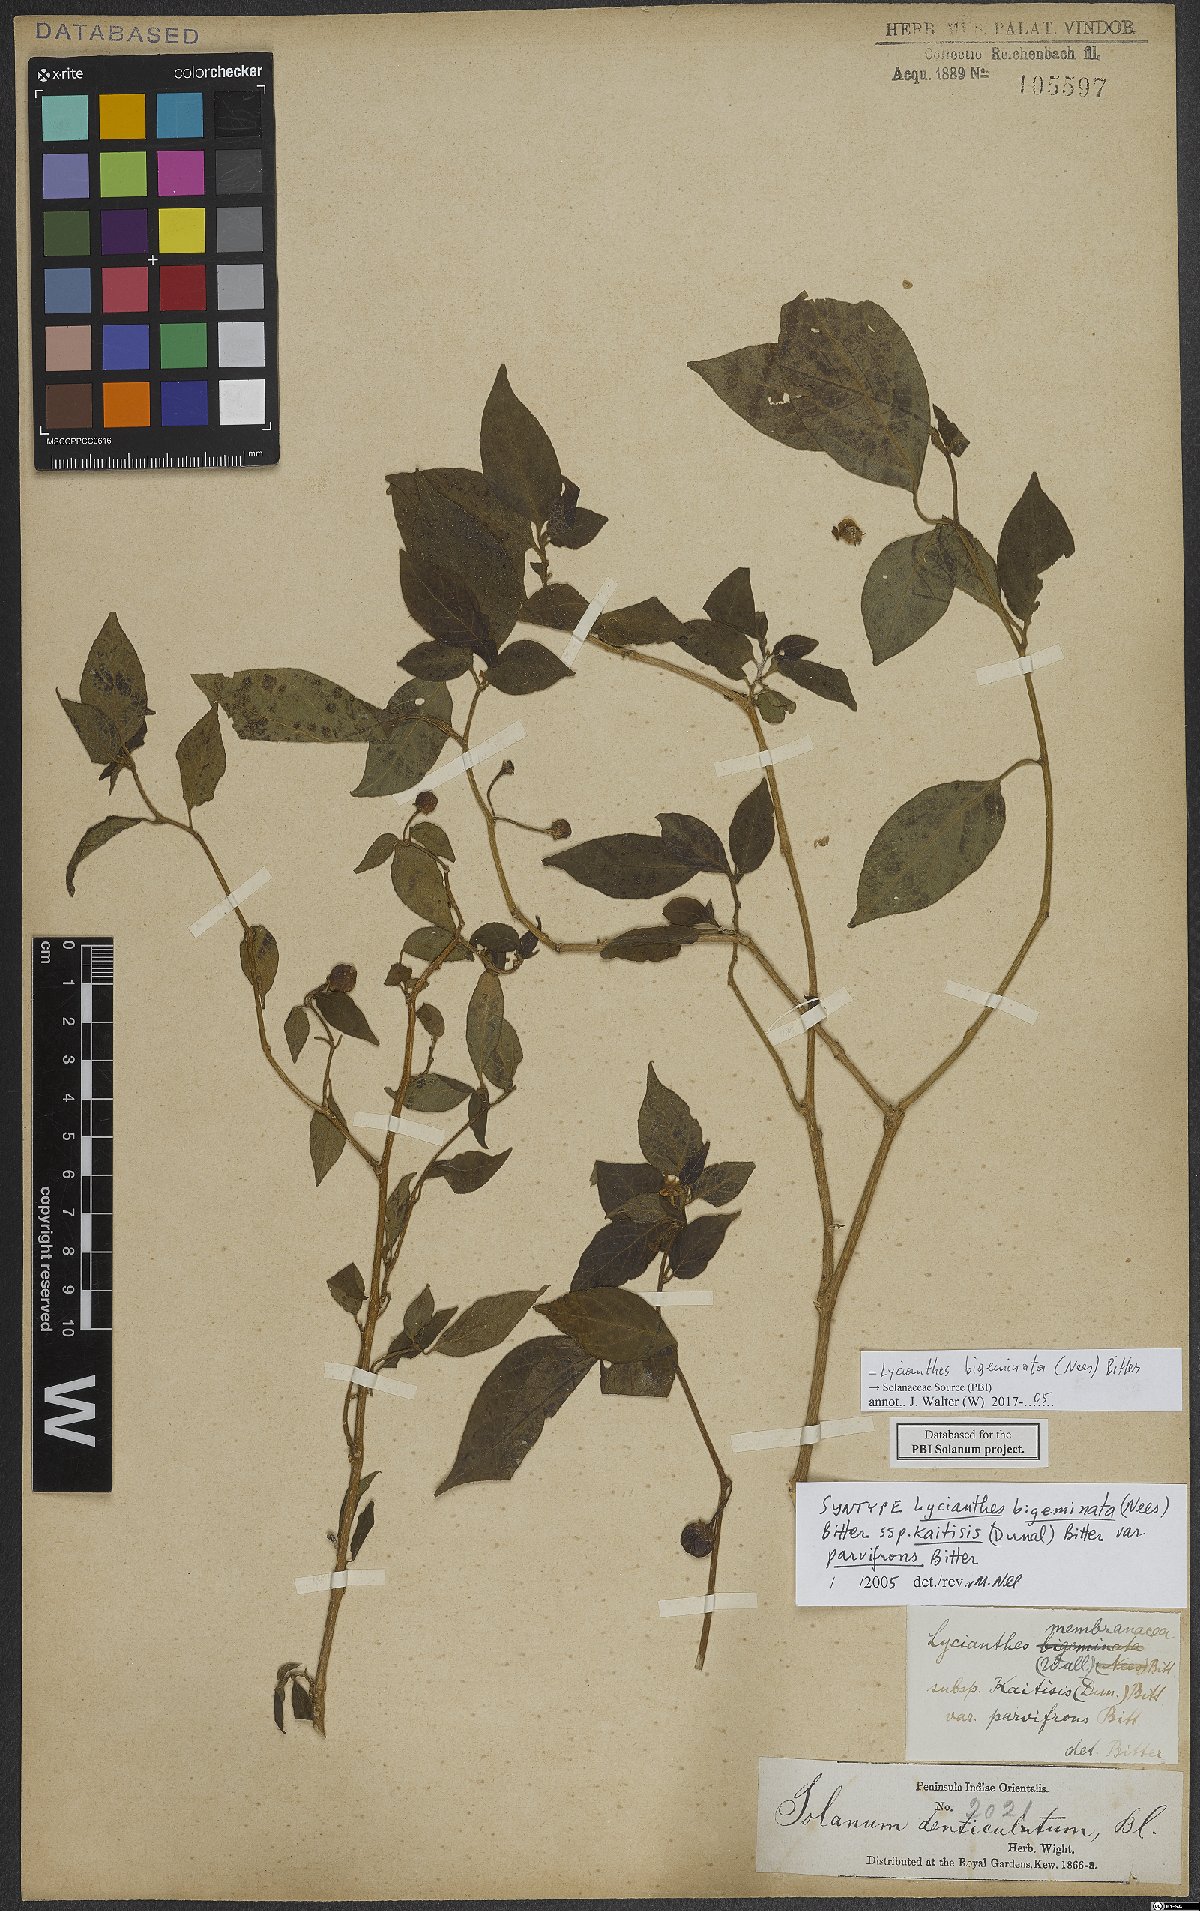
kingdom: Plantae
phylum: Tracheophyta
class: Magnoliopsida
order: Solanales
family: Solanaceae
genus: Lycianthes
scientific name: Lycianthes bigeminata
